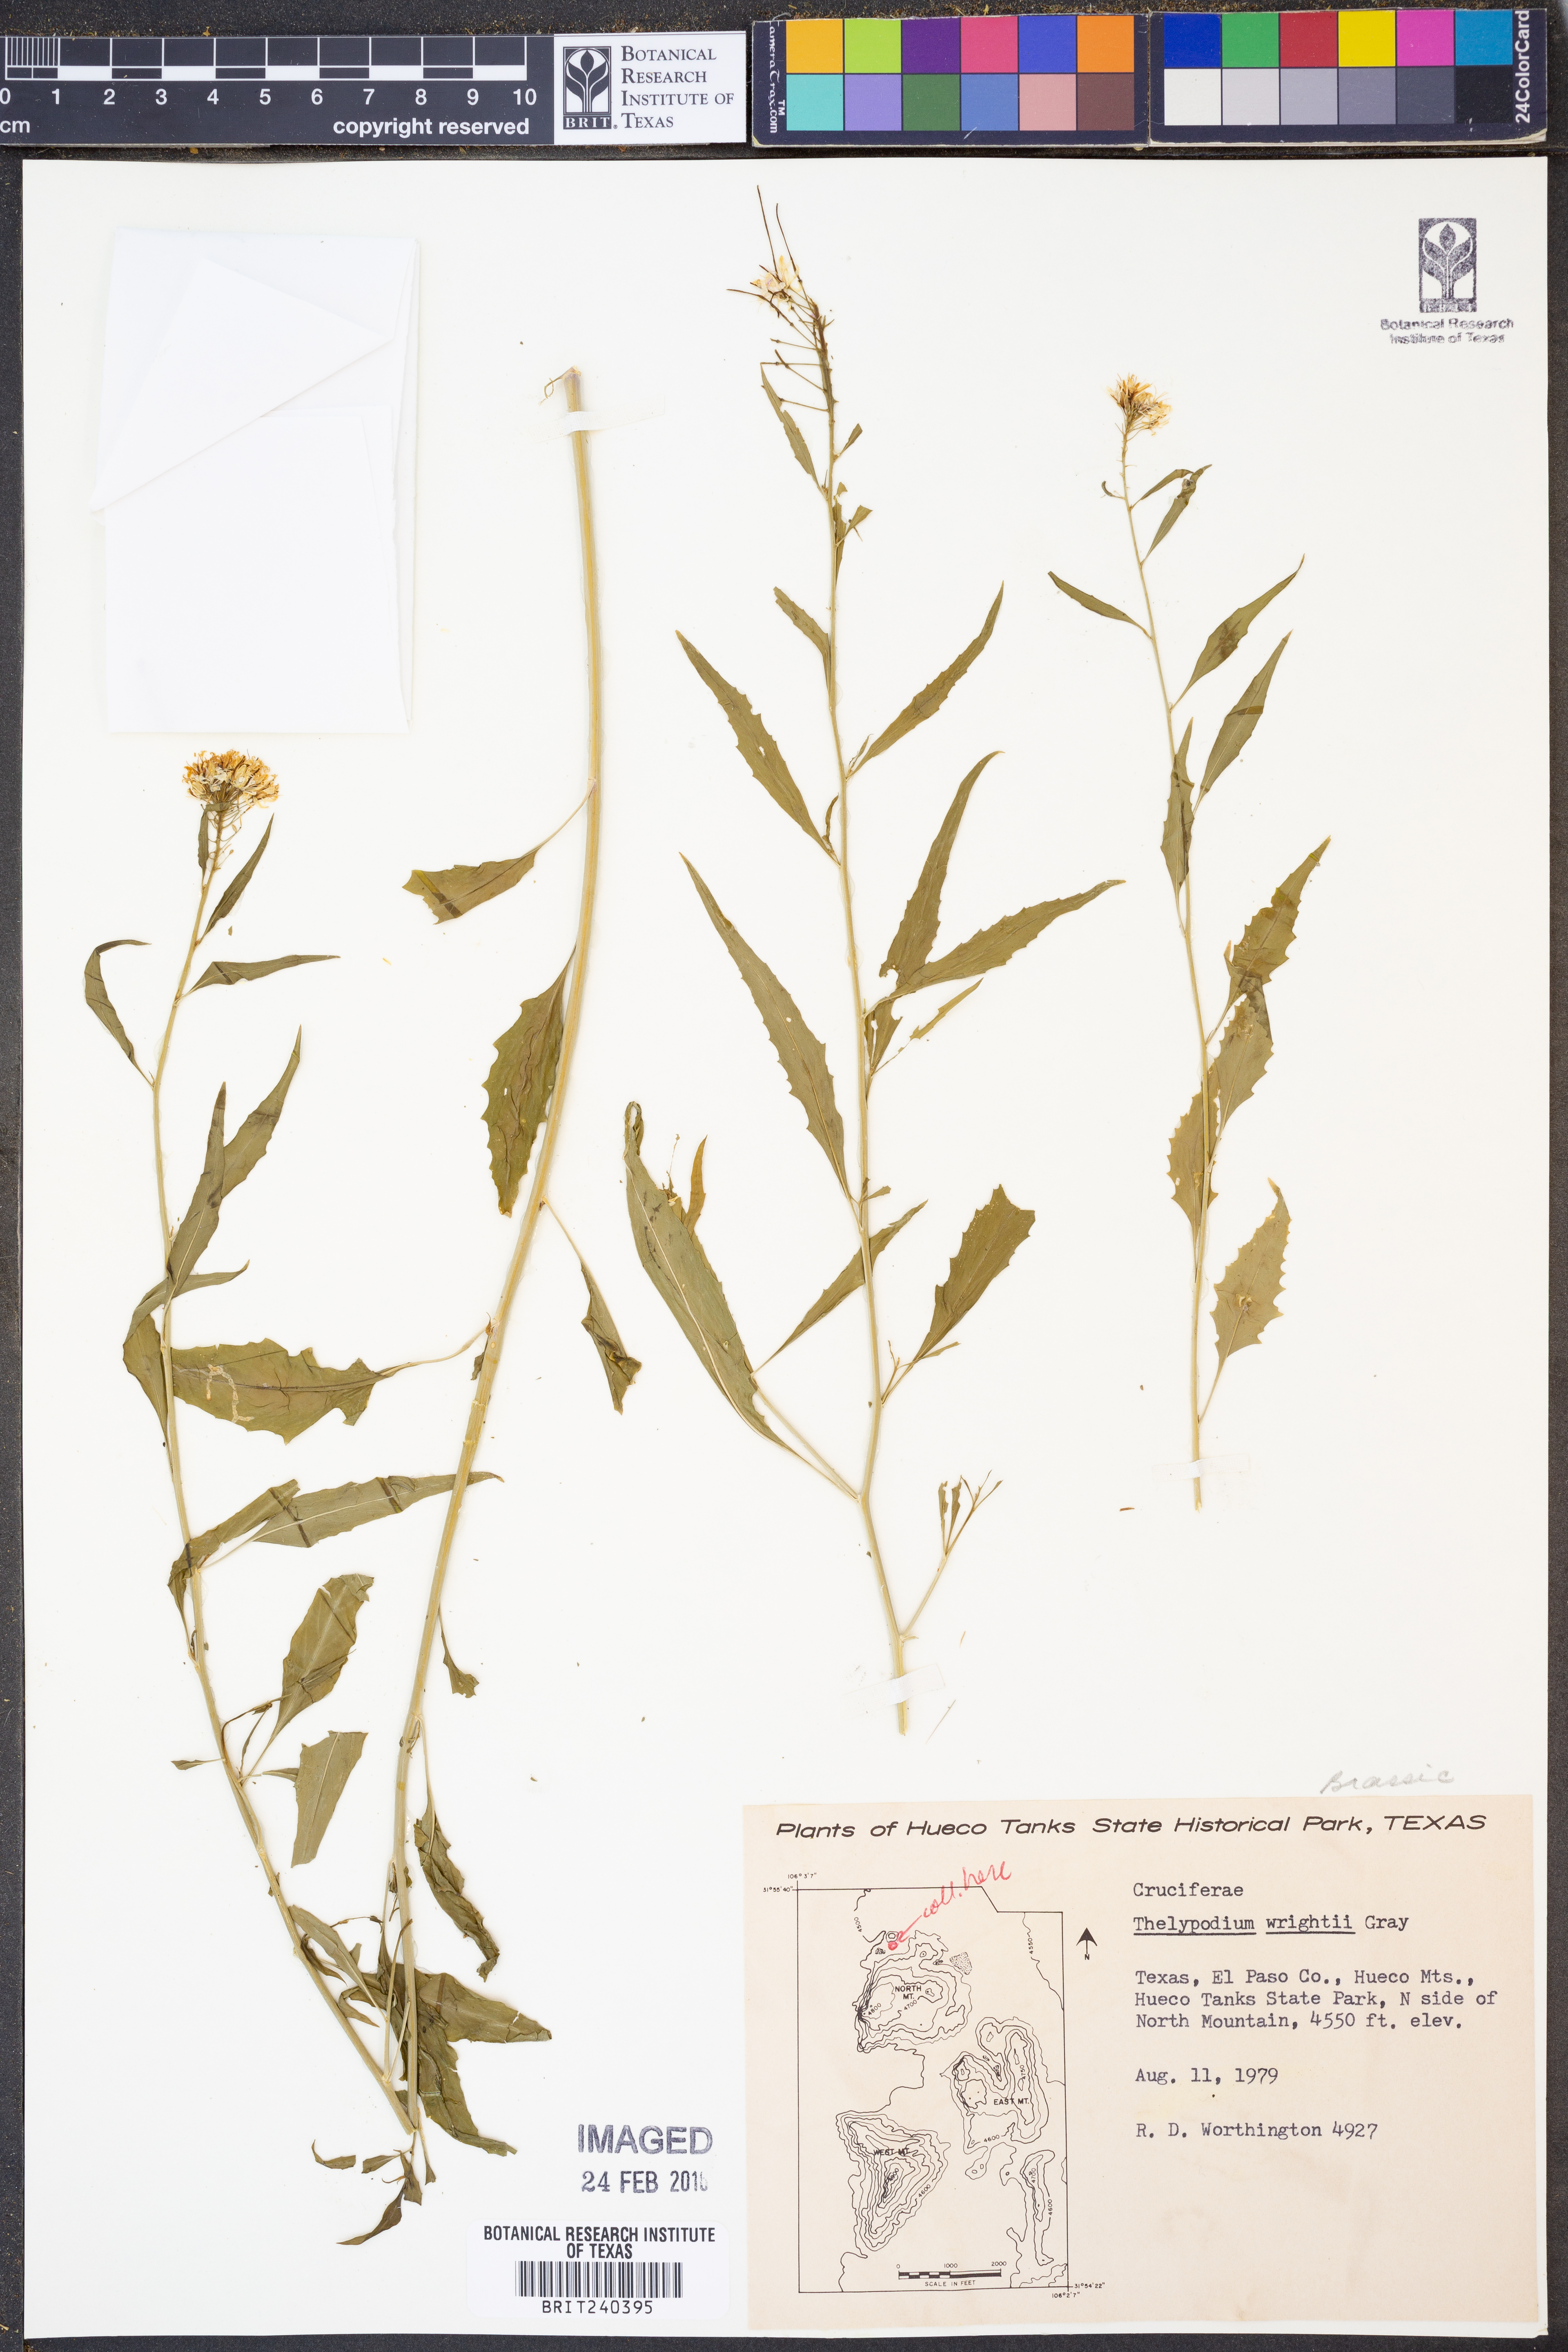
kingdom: Plantae
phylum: Tracheophyta
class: Magnoliopsida
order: Brassicales
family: Brassicaceae
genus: Thelypodium
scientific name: Thelypodium wrightii
